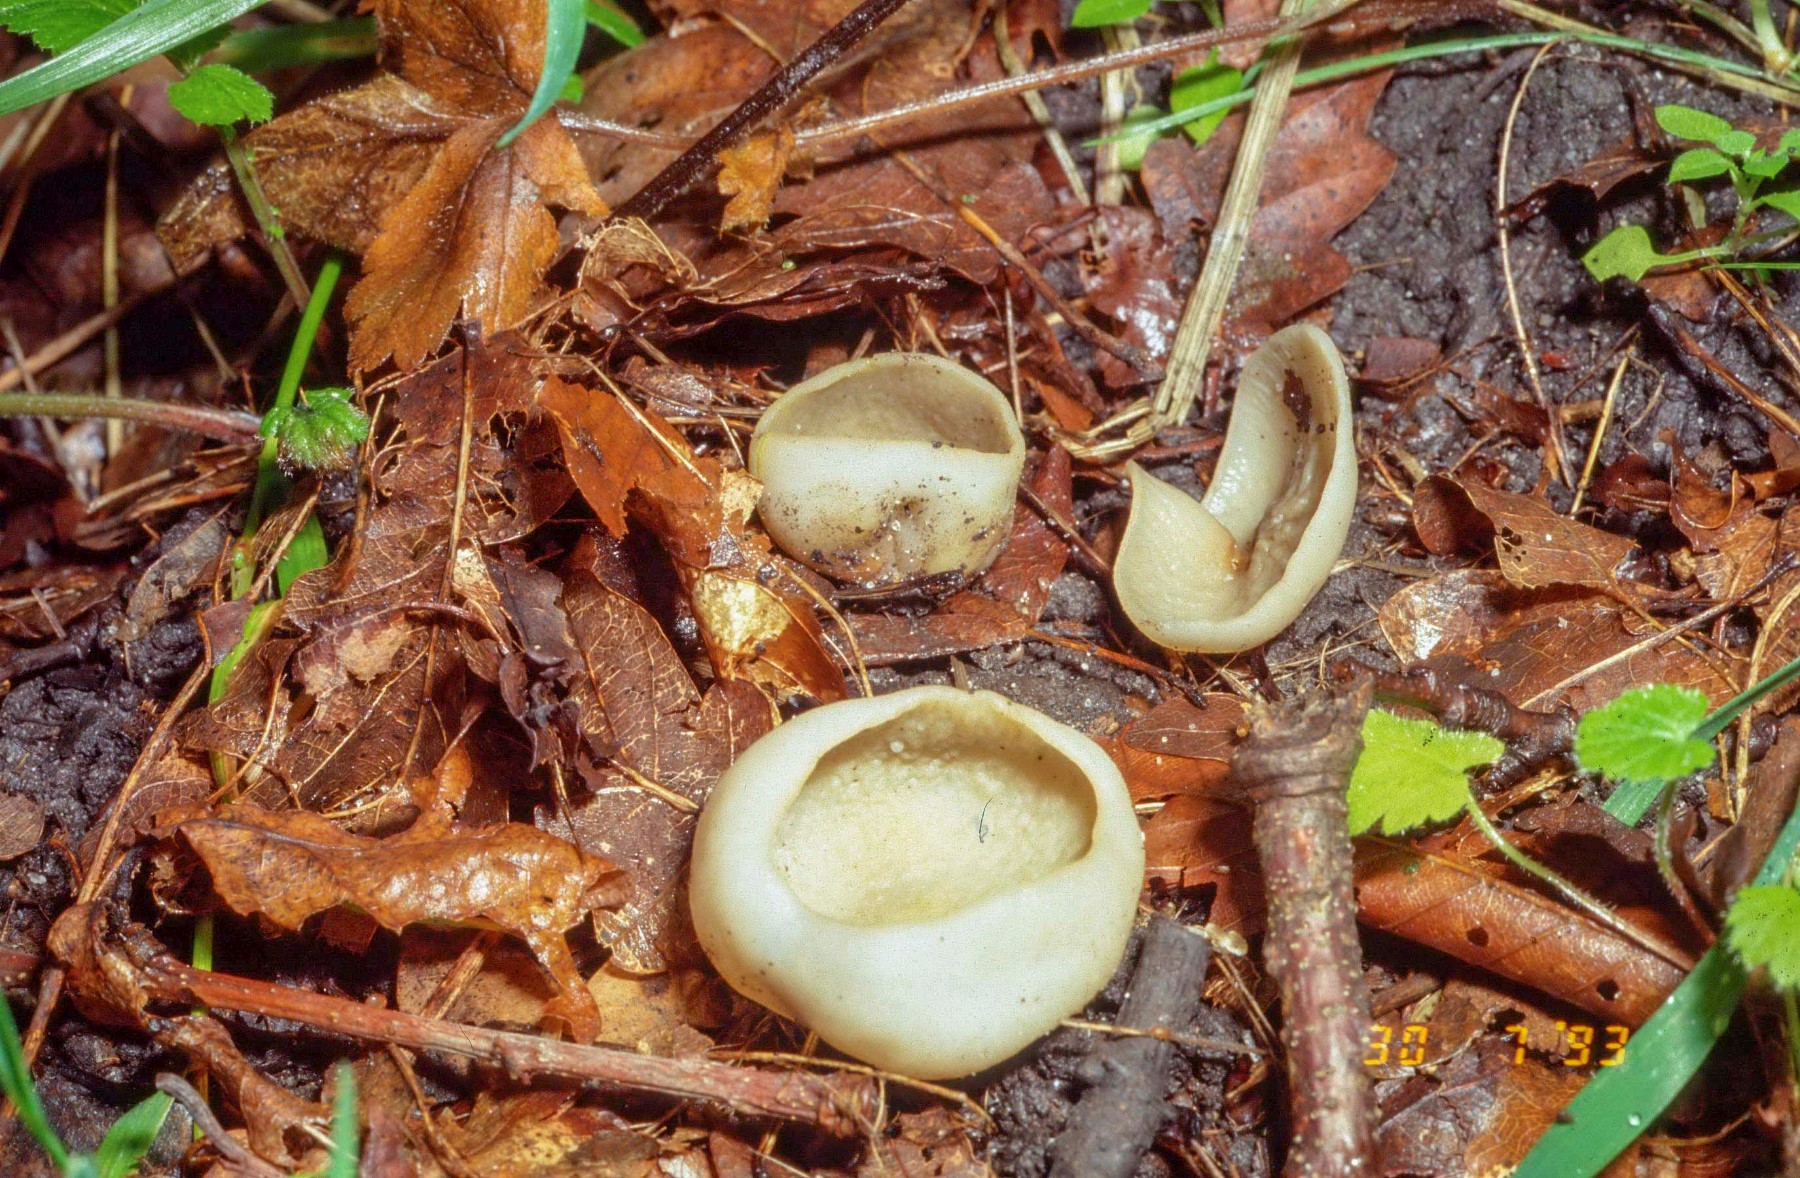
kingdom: Fungi
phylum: Ascomycota
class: Pezizomycetes
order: Pezizales
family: Pezizaceae
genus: Peziza
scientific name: Peziza
